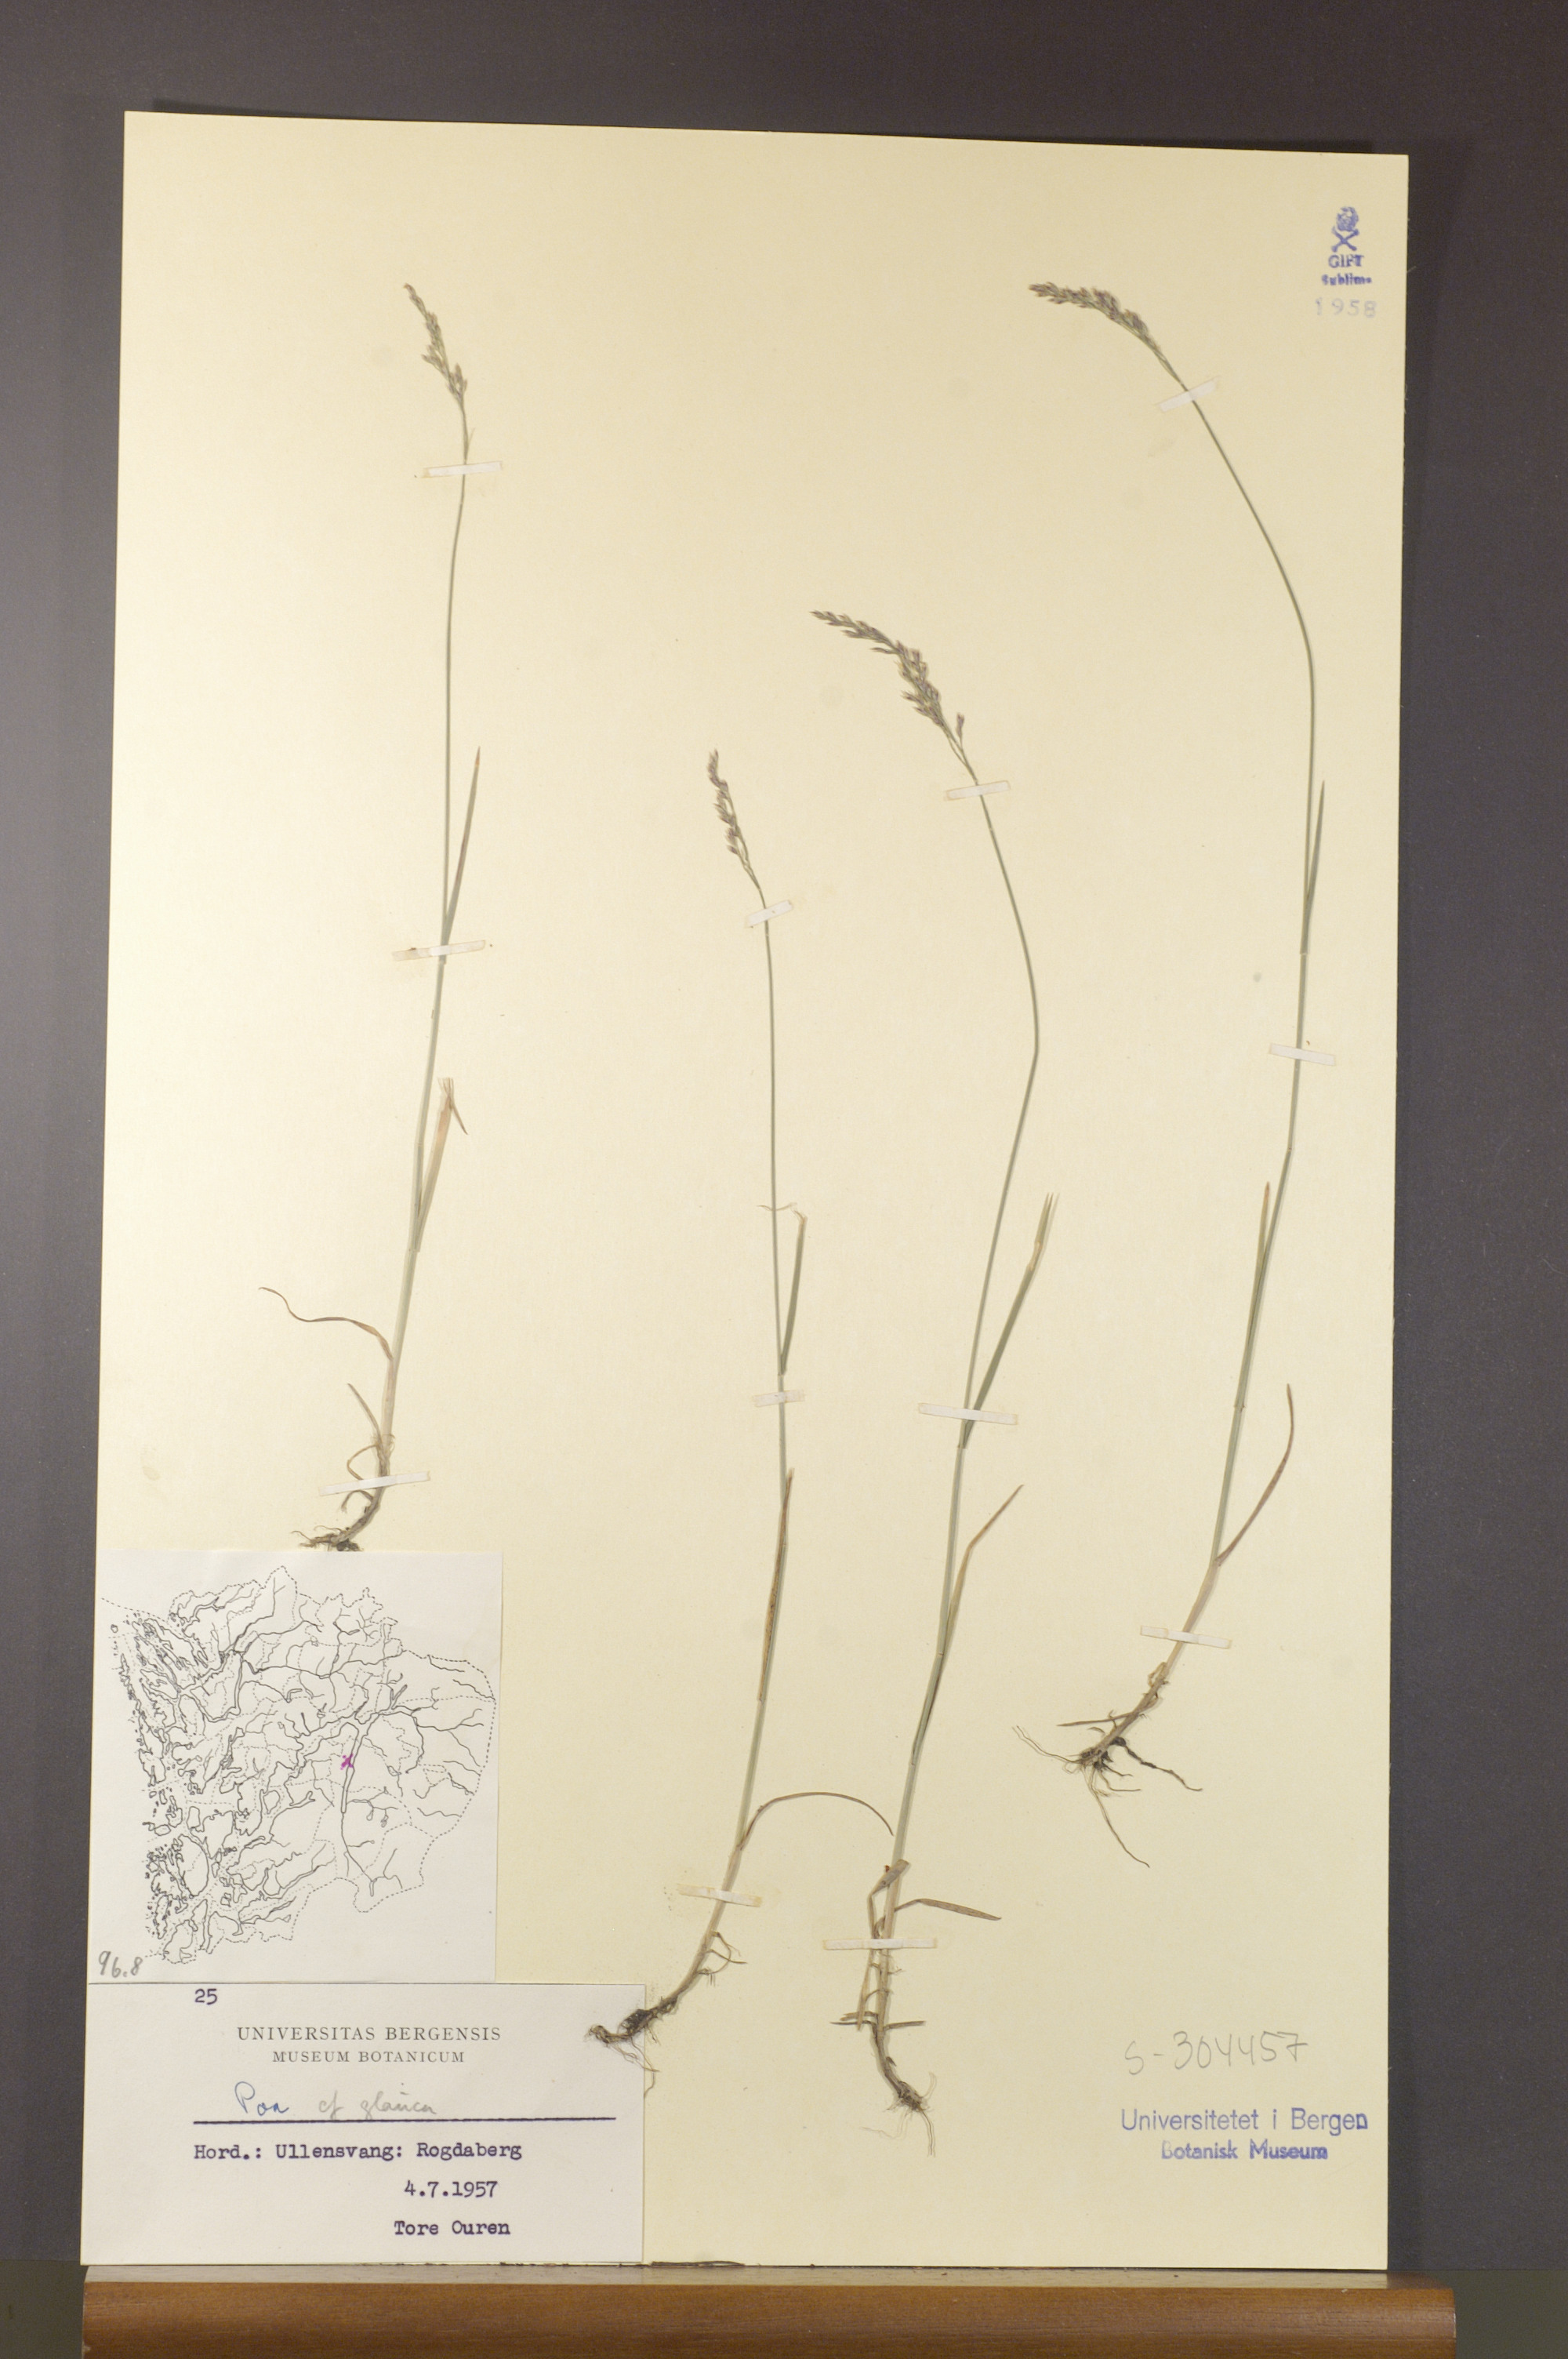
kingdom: Plantae
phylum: Tracheophyta
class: Liliopsida
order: Poales
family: Poaceae
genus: Poa
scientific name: Poa glauca
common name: Glaucous bluegrass
